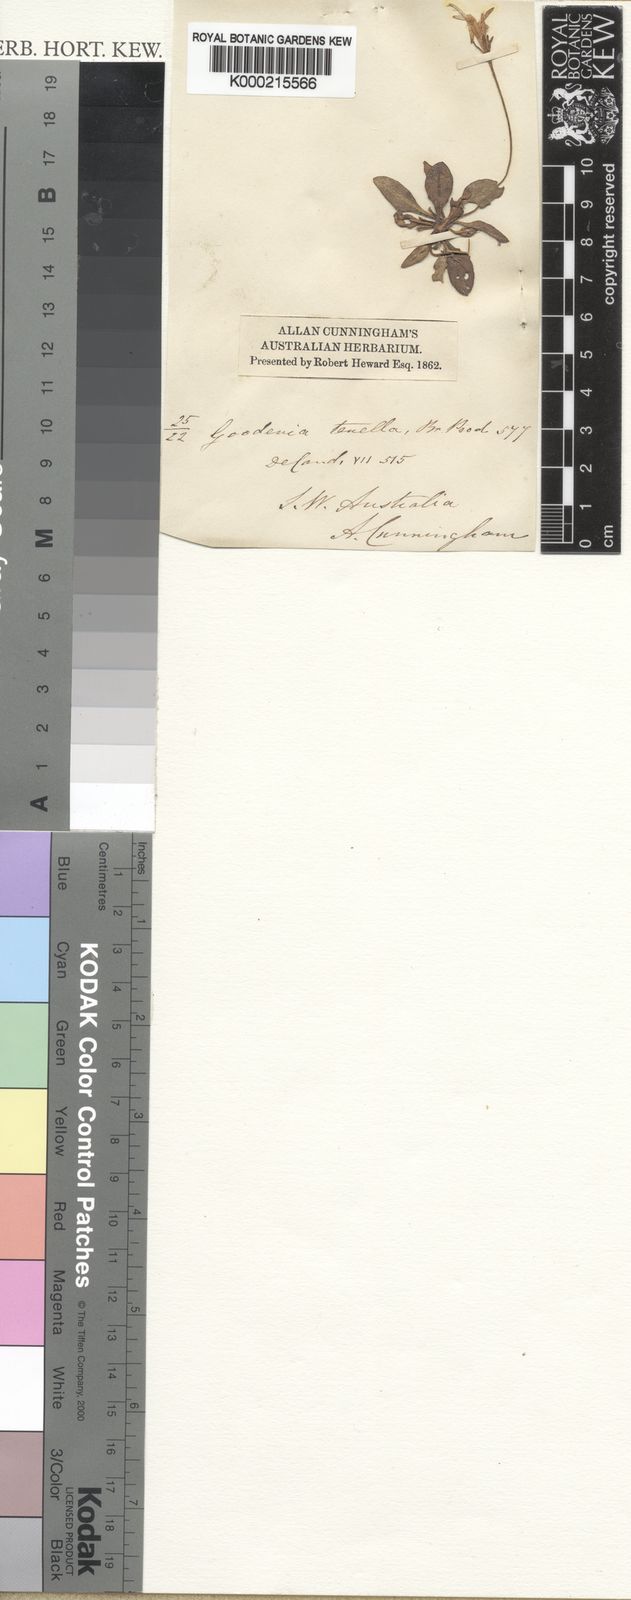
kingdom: Plantae
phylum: Tracheophyta
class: Magnoliopsida
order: Asterales
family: Goodeniaceae
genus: Goodenia
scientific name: Goodenia pusilla
